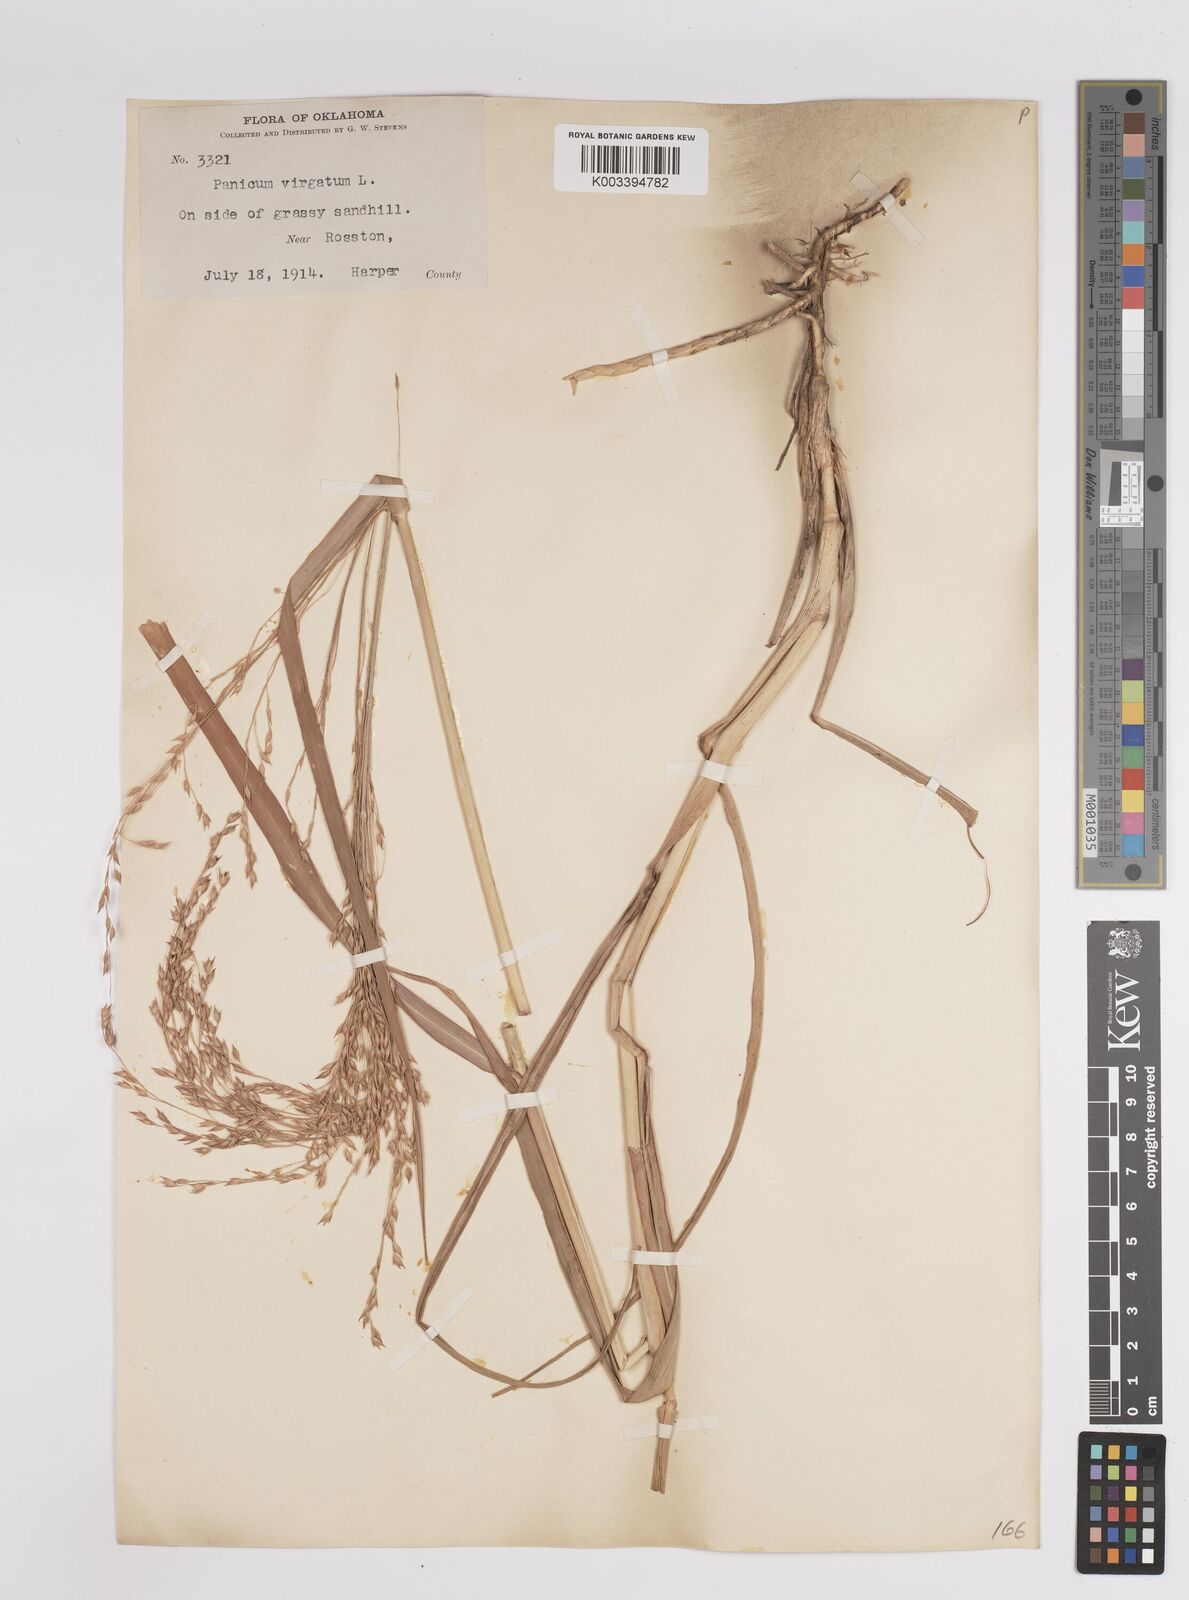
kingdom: Plantae
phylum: Tracheophyta
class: Liliopsida
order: Poales
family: Poaceae
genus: Panicum
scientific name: Panicum virgatum
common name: Switchgrass
